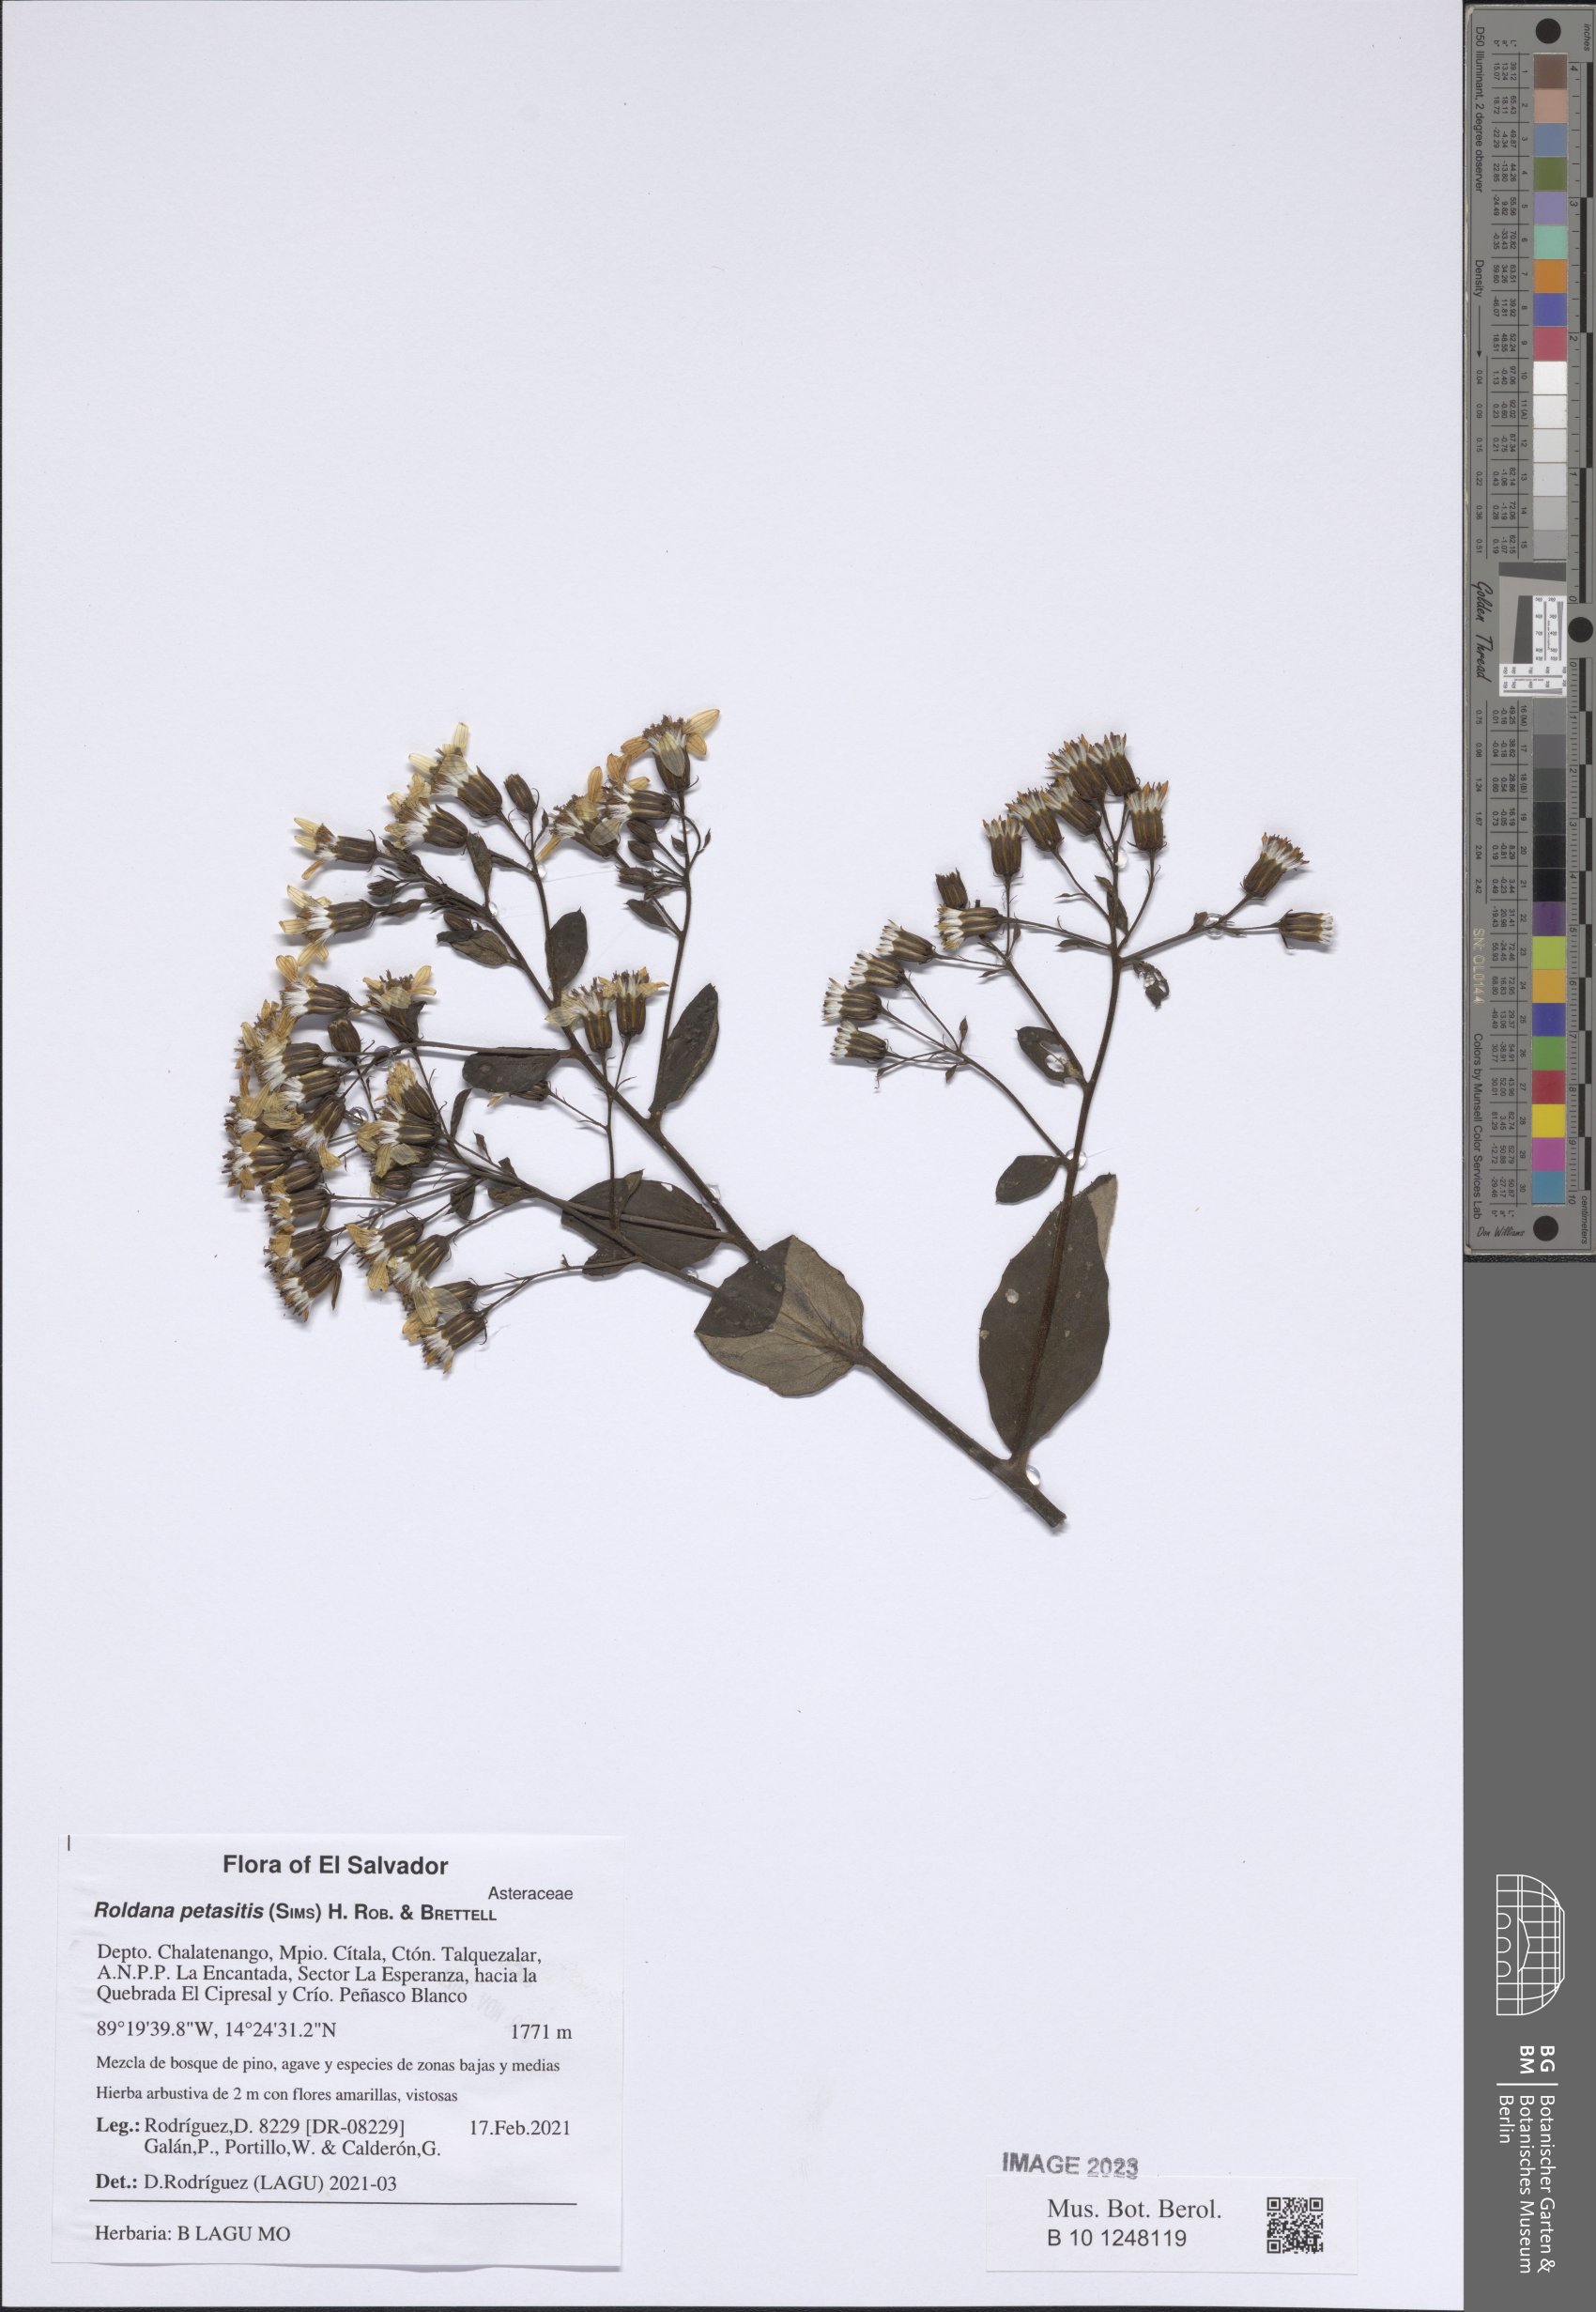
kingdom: Plantae
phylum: Tracheophyta
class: Magnoliopsida
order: Asterales
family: Asteraceae
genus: Roldana
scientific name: Roldana petasitis
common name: California-geranium
